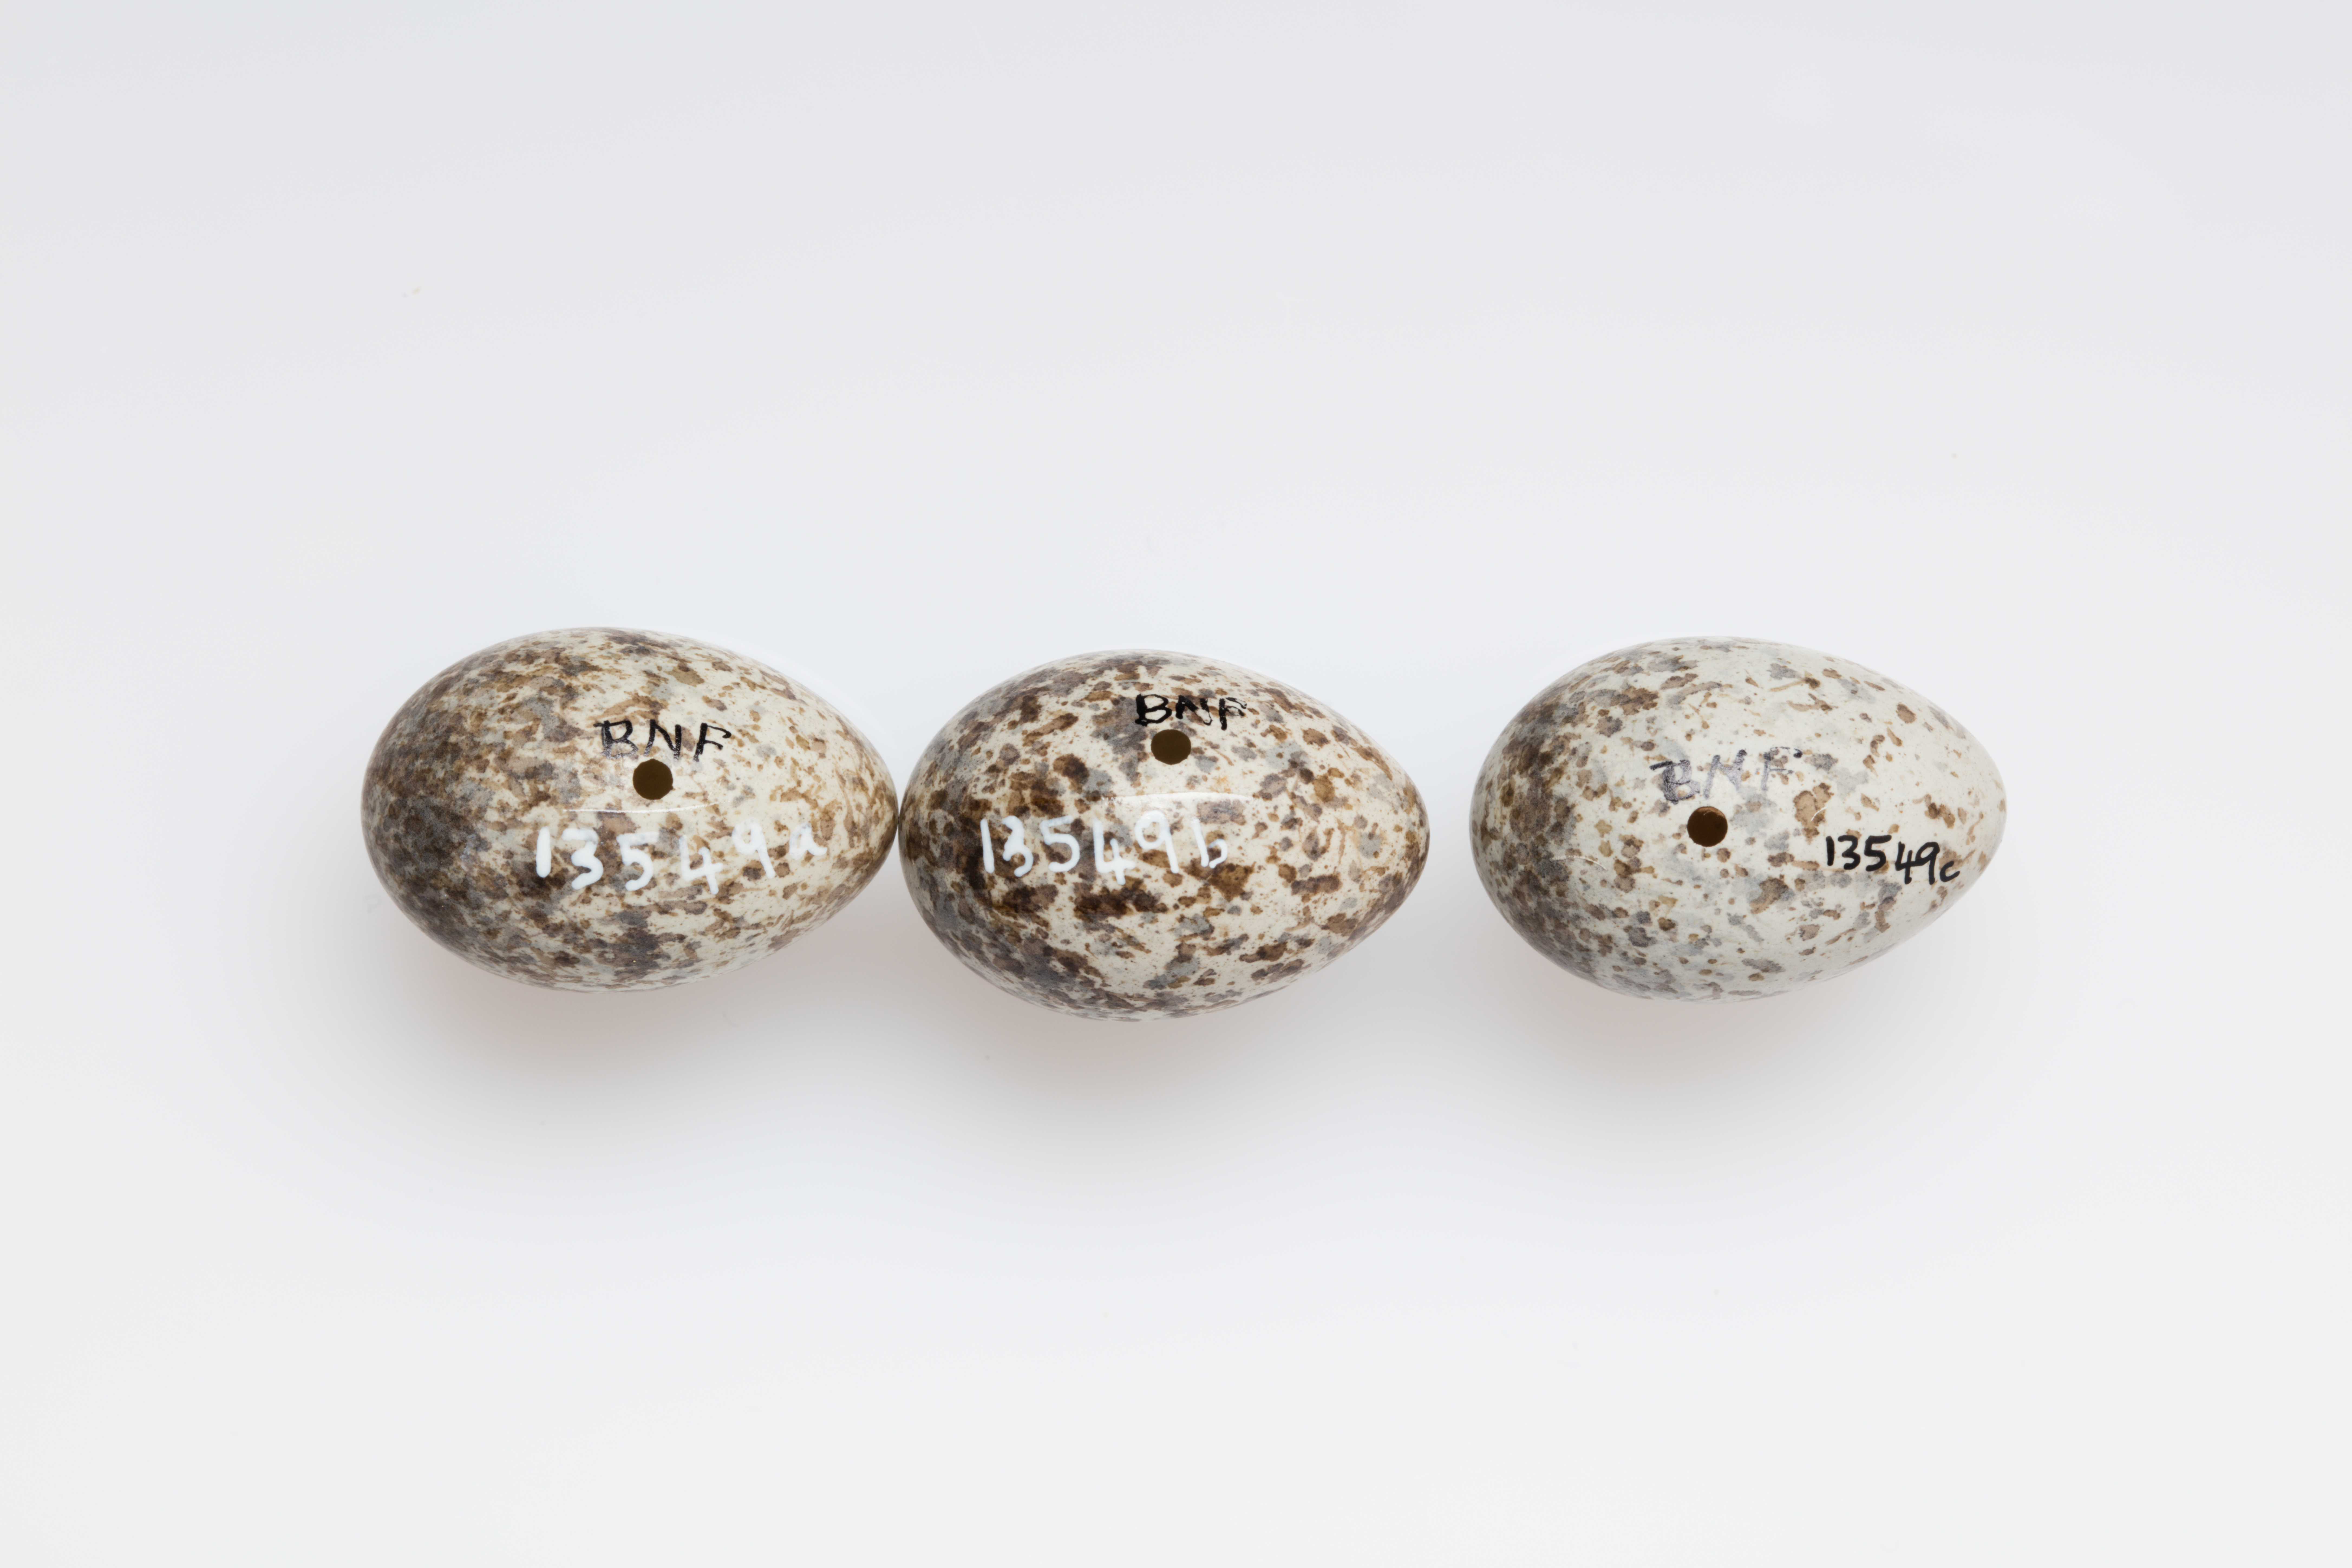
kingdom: Animalia
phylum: Chordata
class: Aves
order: Passeriformes
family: Motacillidae
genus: Anthus
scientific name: Anthus novaeseelandiae
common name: New zealand pipit
